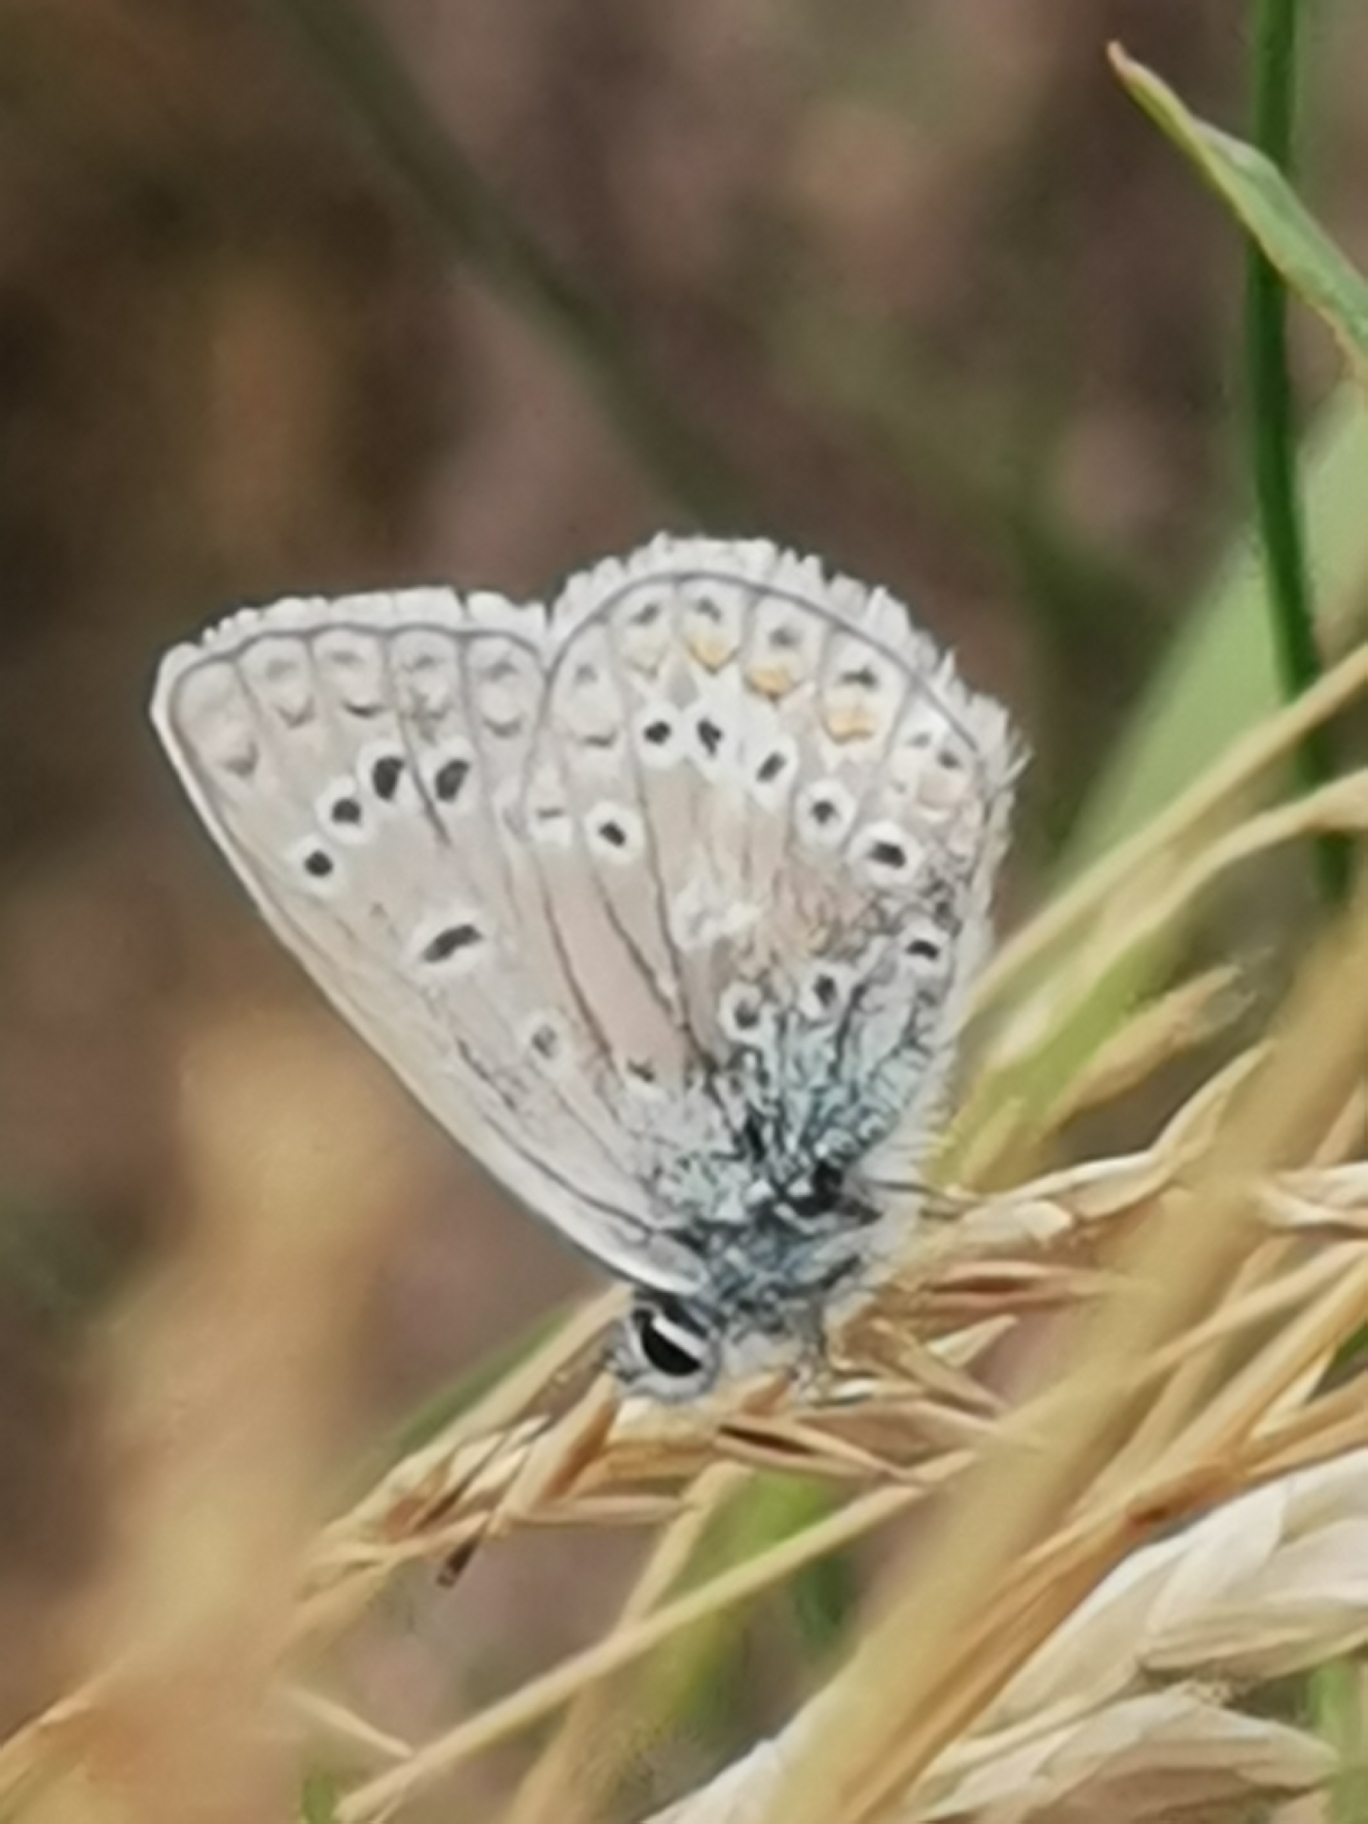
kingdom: Animalia
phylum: Arthropoda
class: Insecta
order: Lepidoptera
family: Lycaenidae
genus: Polyommatus
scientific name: Polyommatus icarus
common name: Almindelig blåfugl
